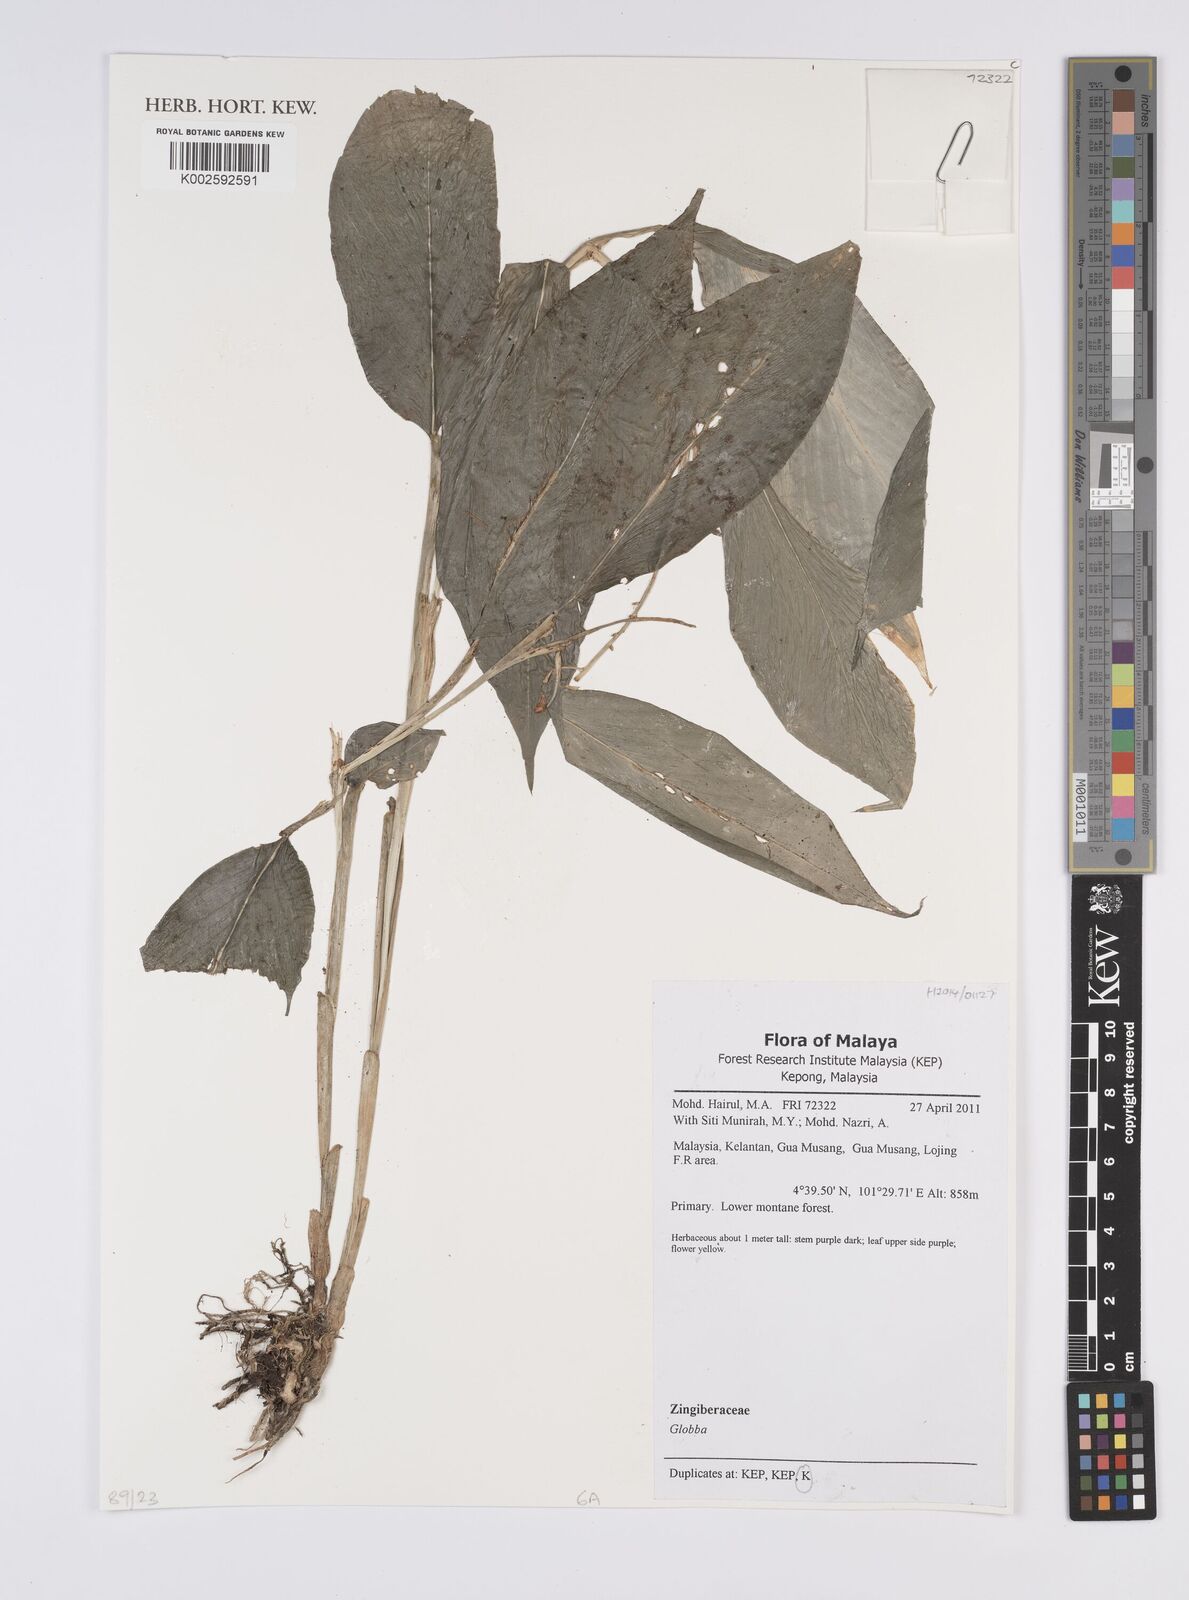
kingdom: Plantae
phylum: Tracheophyta
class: Liliopsida
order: Zingiberales
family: Zingiberaceae
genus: Globba
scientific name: Globba
